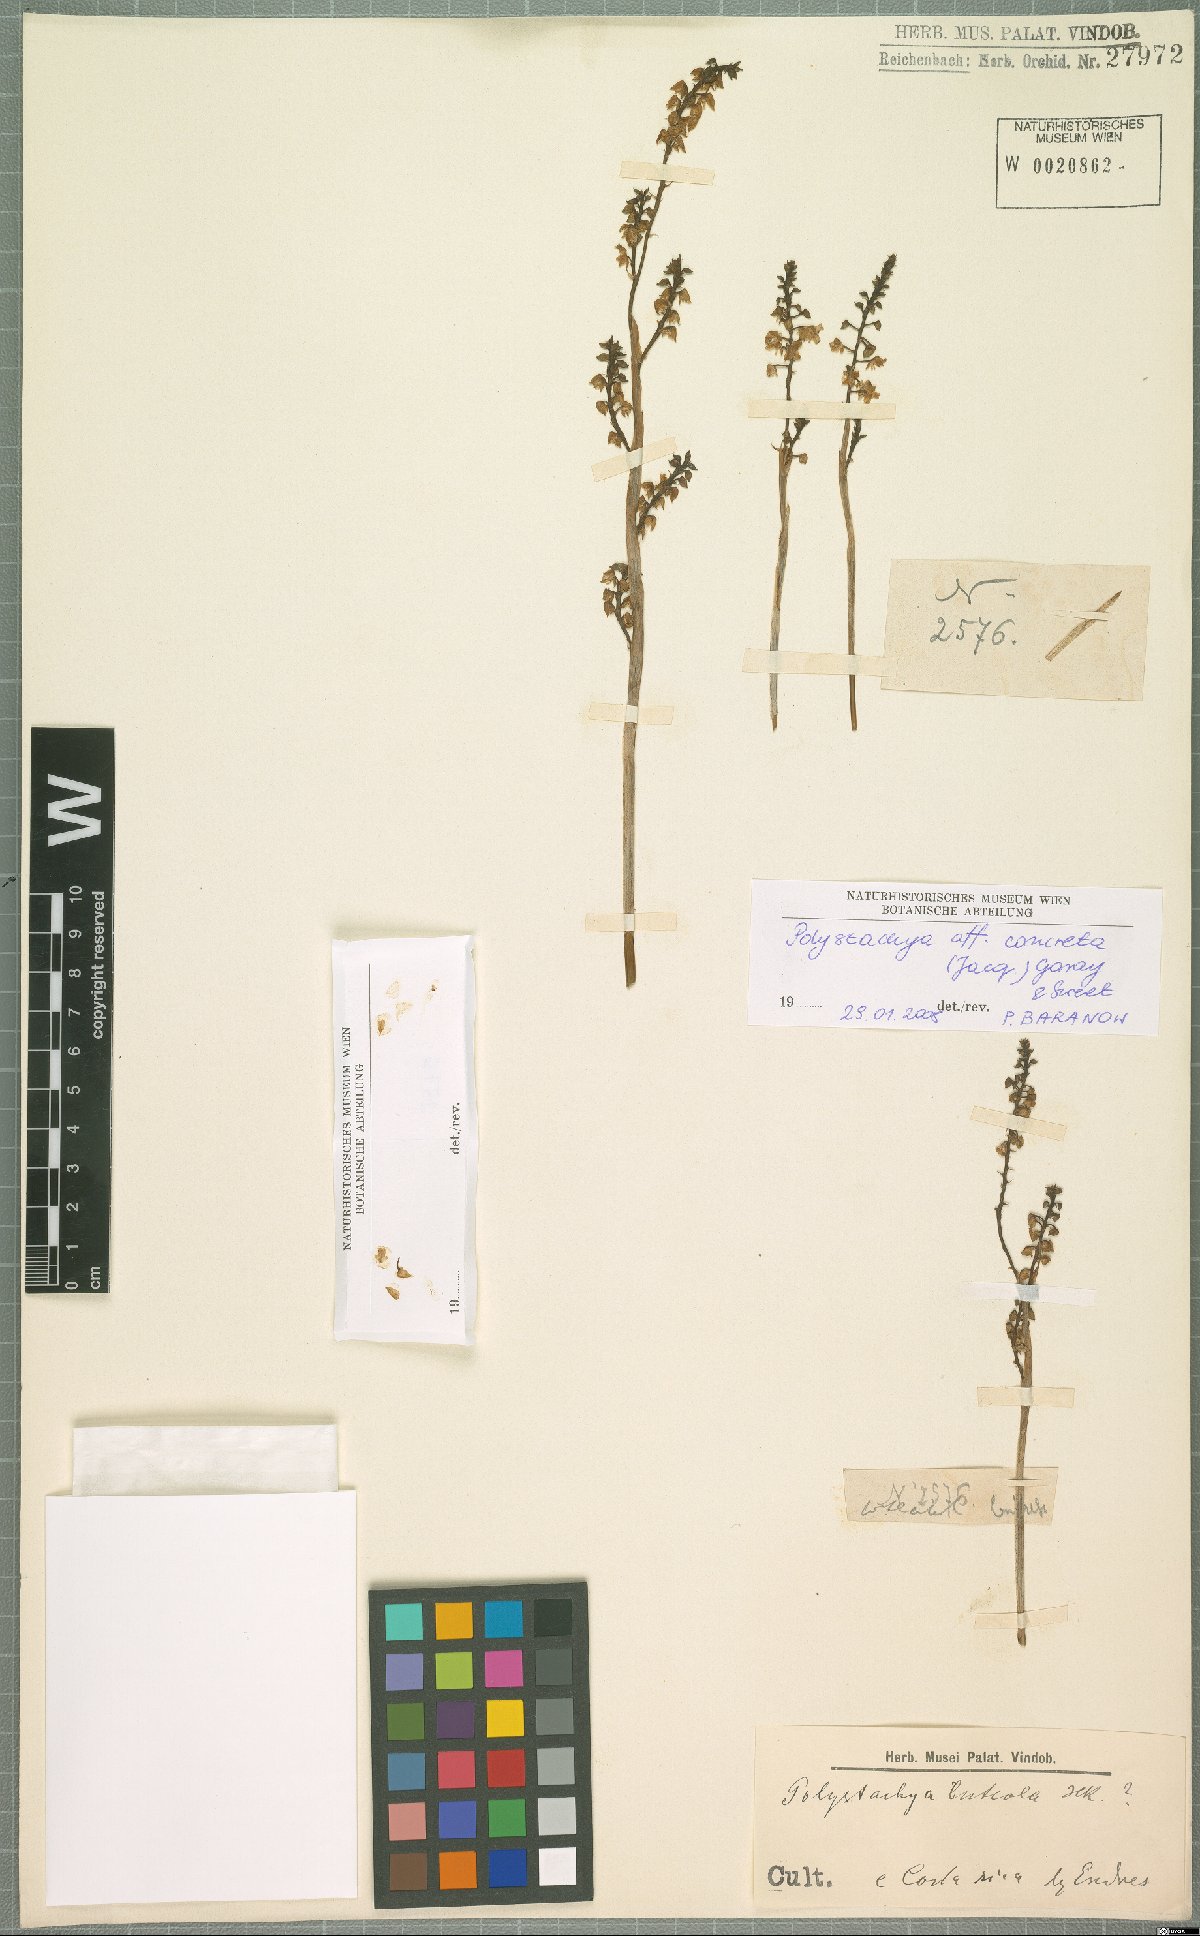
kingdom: Plantae
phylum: Tracheophyta
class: Liliopsida
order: Asparagales
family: Orchidaceae
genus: Polystachya
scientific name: Polystachya foliosa
